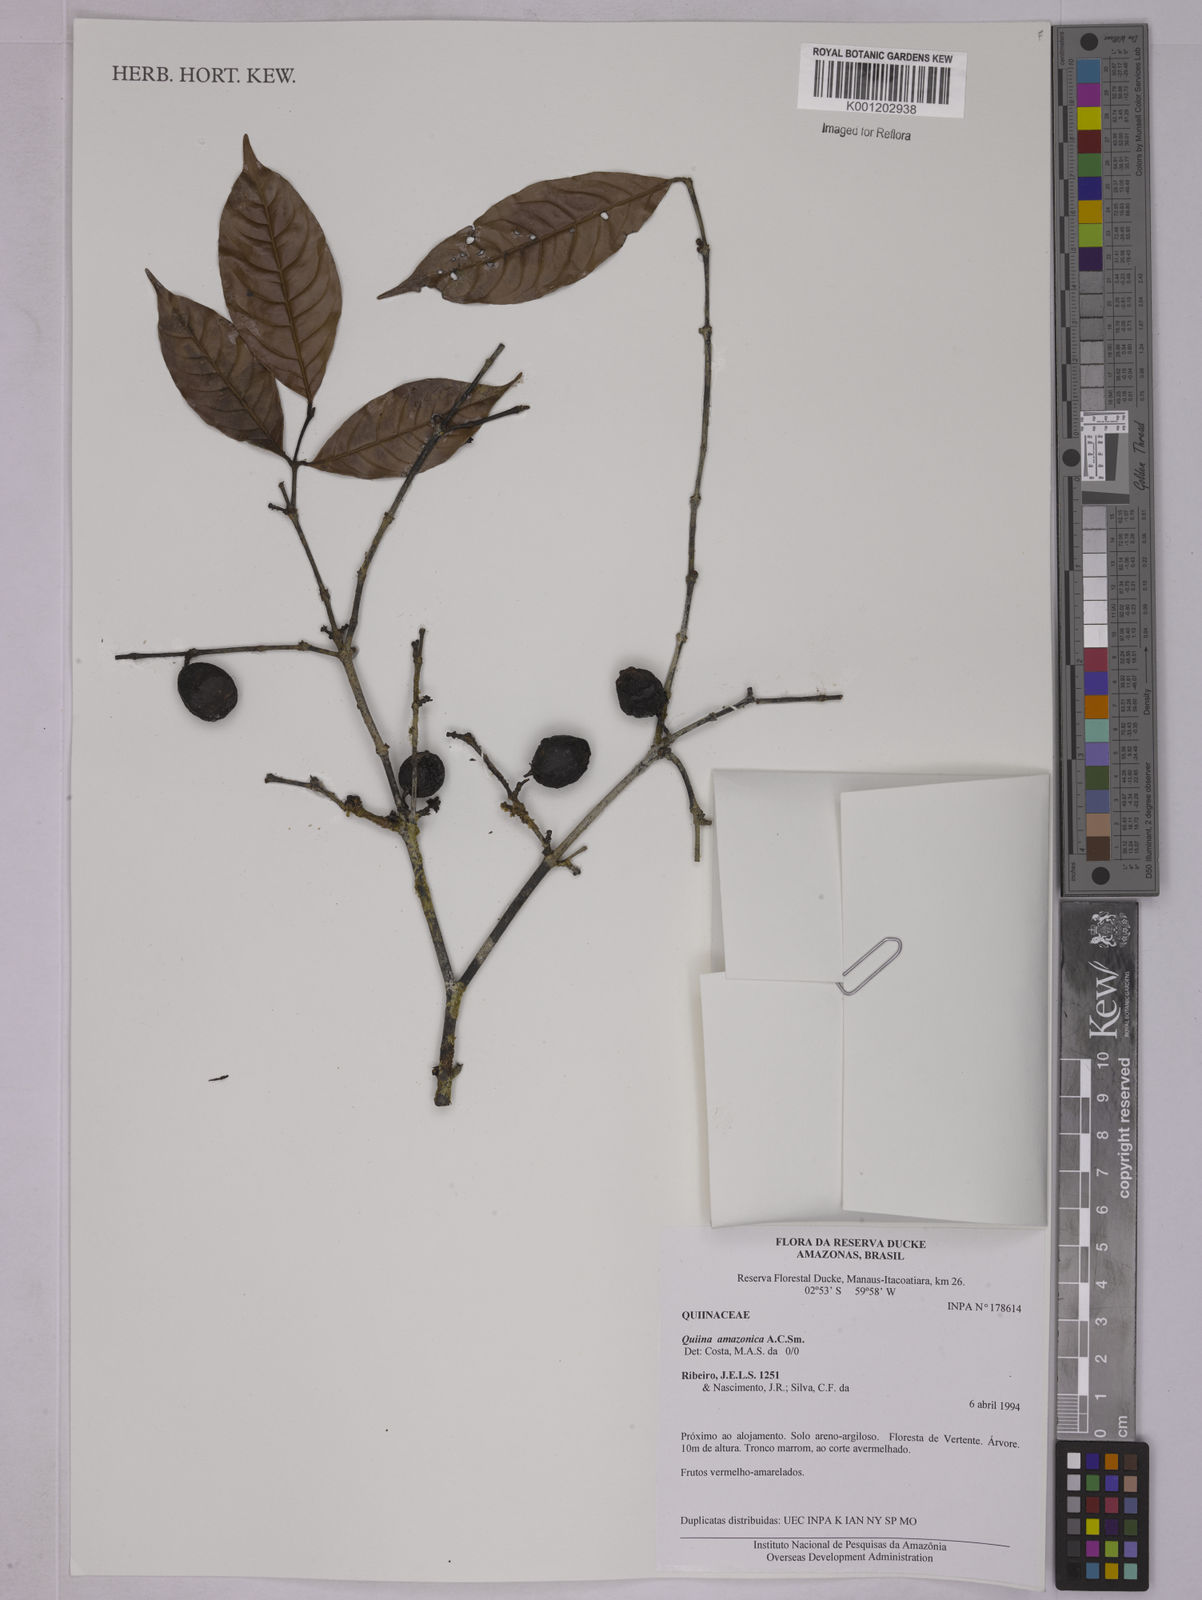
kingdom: Plantae
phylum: Tracheophyta
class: Magnoliopsida
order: Malpighiales
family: Quiinaceae
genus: Quiina
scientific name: Quiina amazonica
